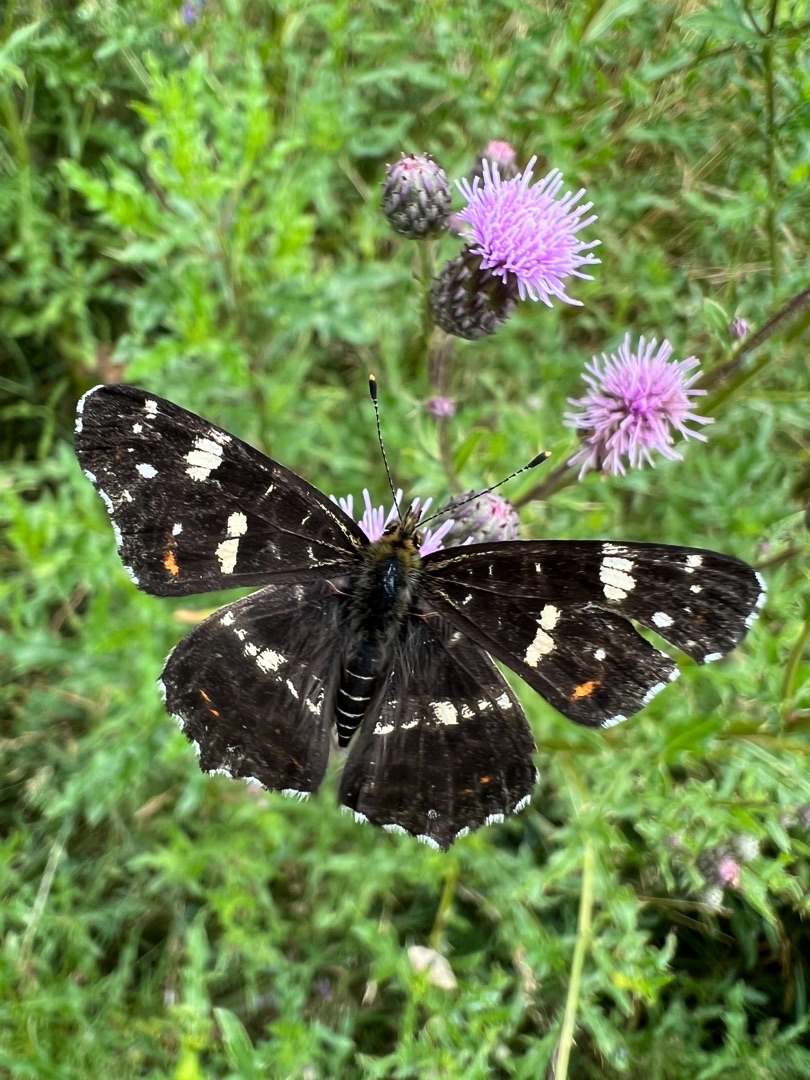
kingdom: Animalia
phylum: Arthropoda
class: Insecta
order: Lepidoptera
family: Nymphalidae
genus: Araschnia
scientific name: Araschnia levana
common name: Nældesommerfugl
